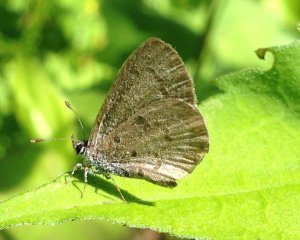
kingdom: Animalia
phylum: Arthropoda
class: Insecta
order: Lepidoptera
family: Lycaenidae
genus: Celastrina
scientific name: Celastrina
